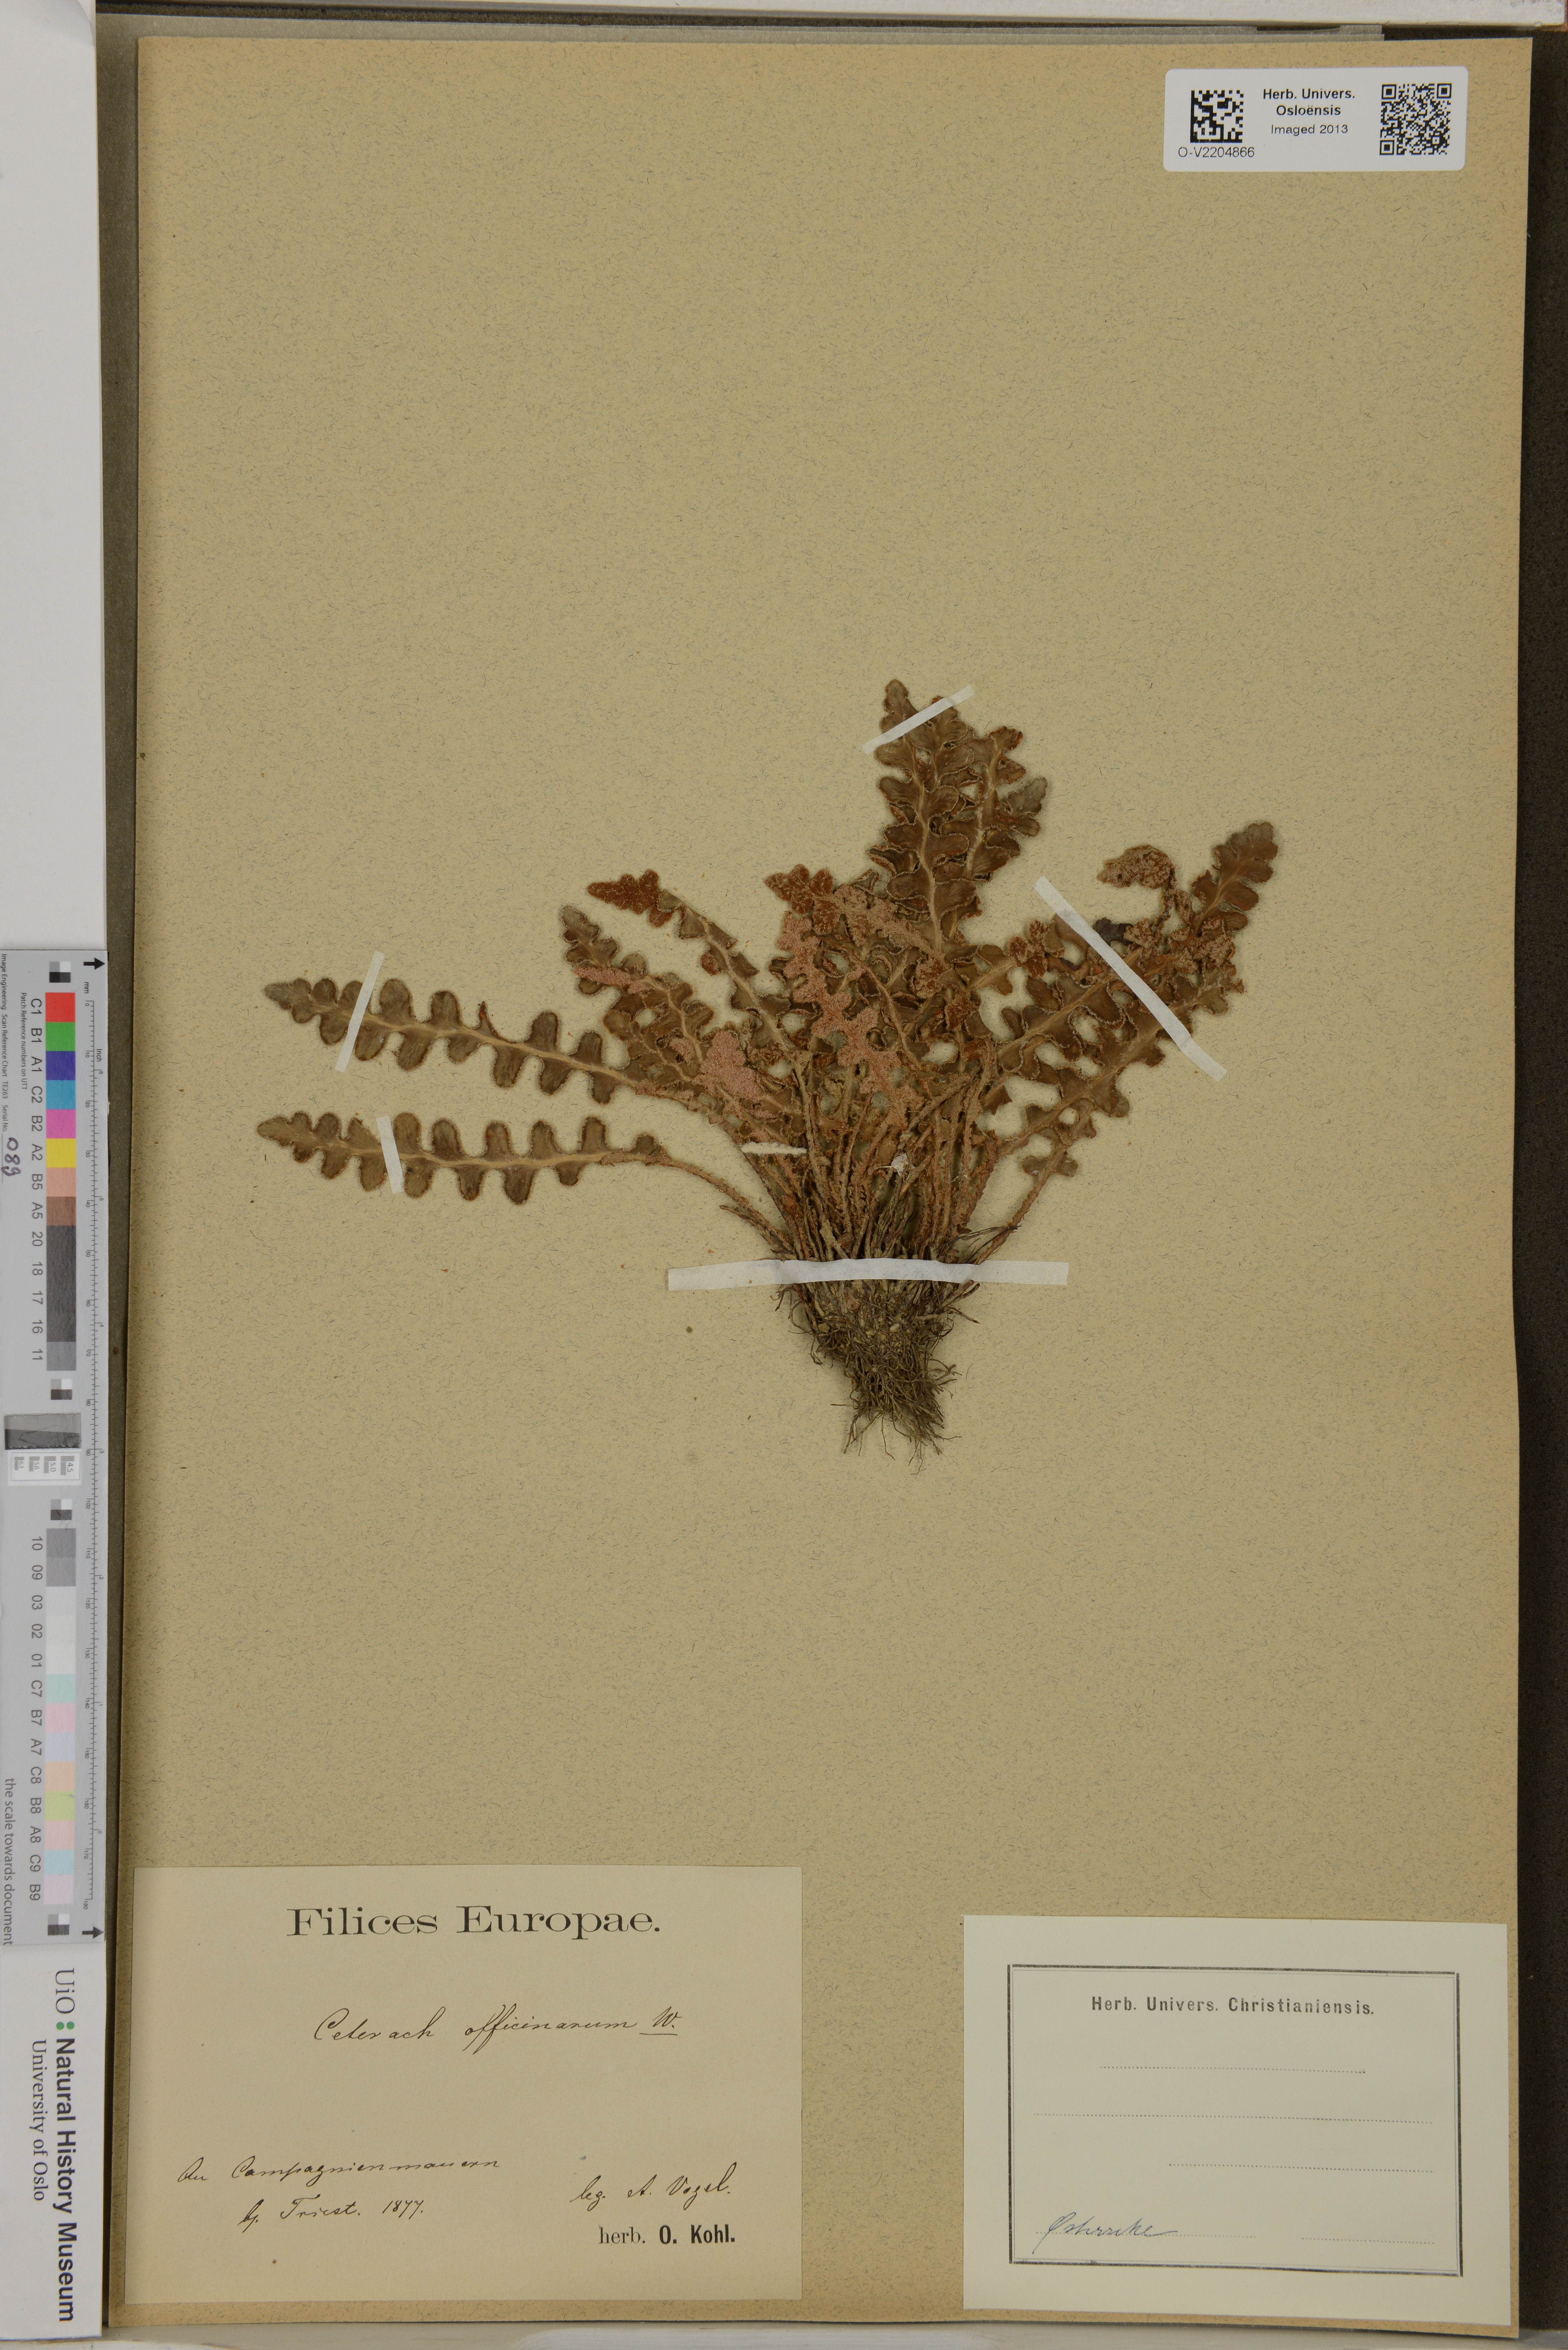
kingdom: Plantae
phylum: Tracheophyta
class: Polypodiopsida
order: Polypodiales
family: Aspleniaceae
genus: Asplenium
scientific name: Asplenium ceterach
